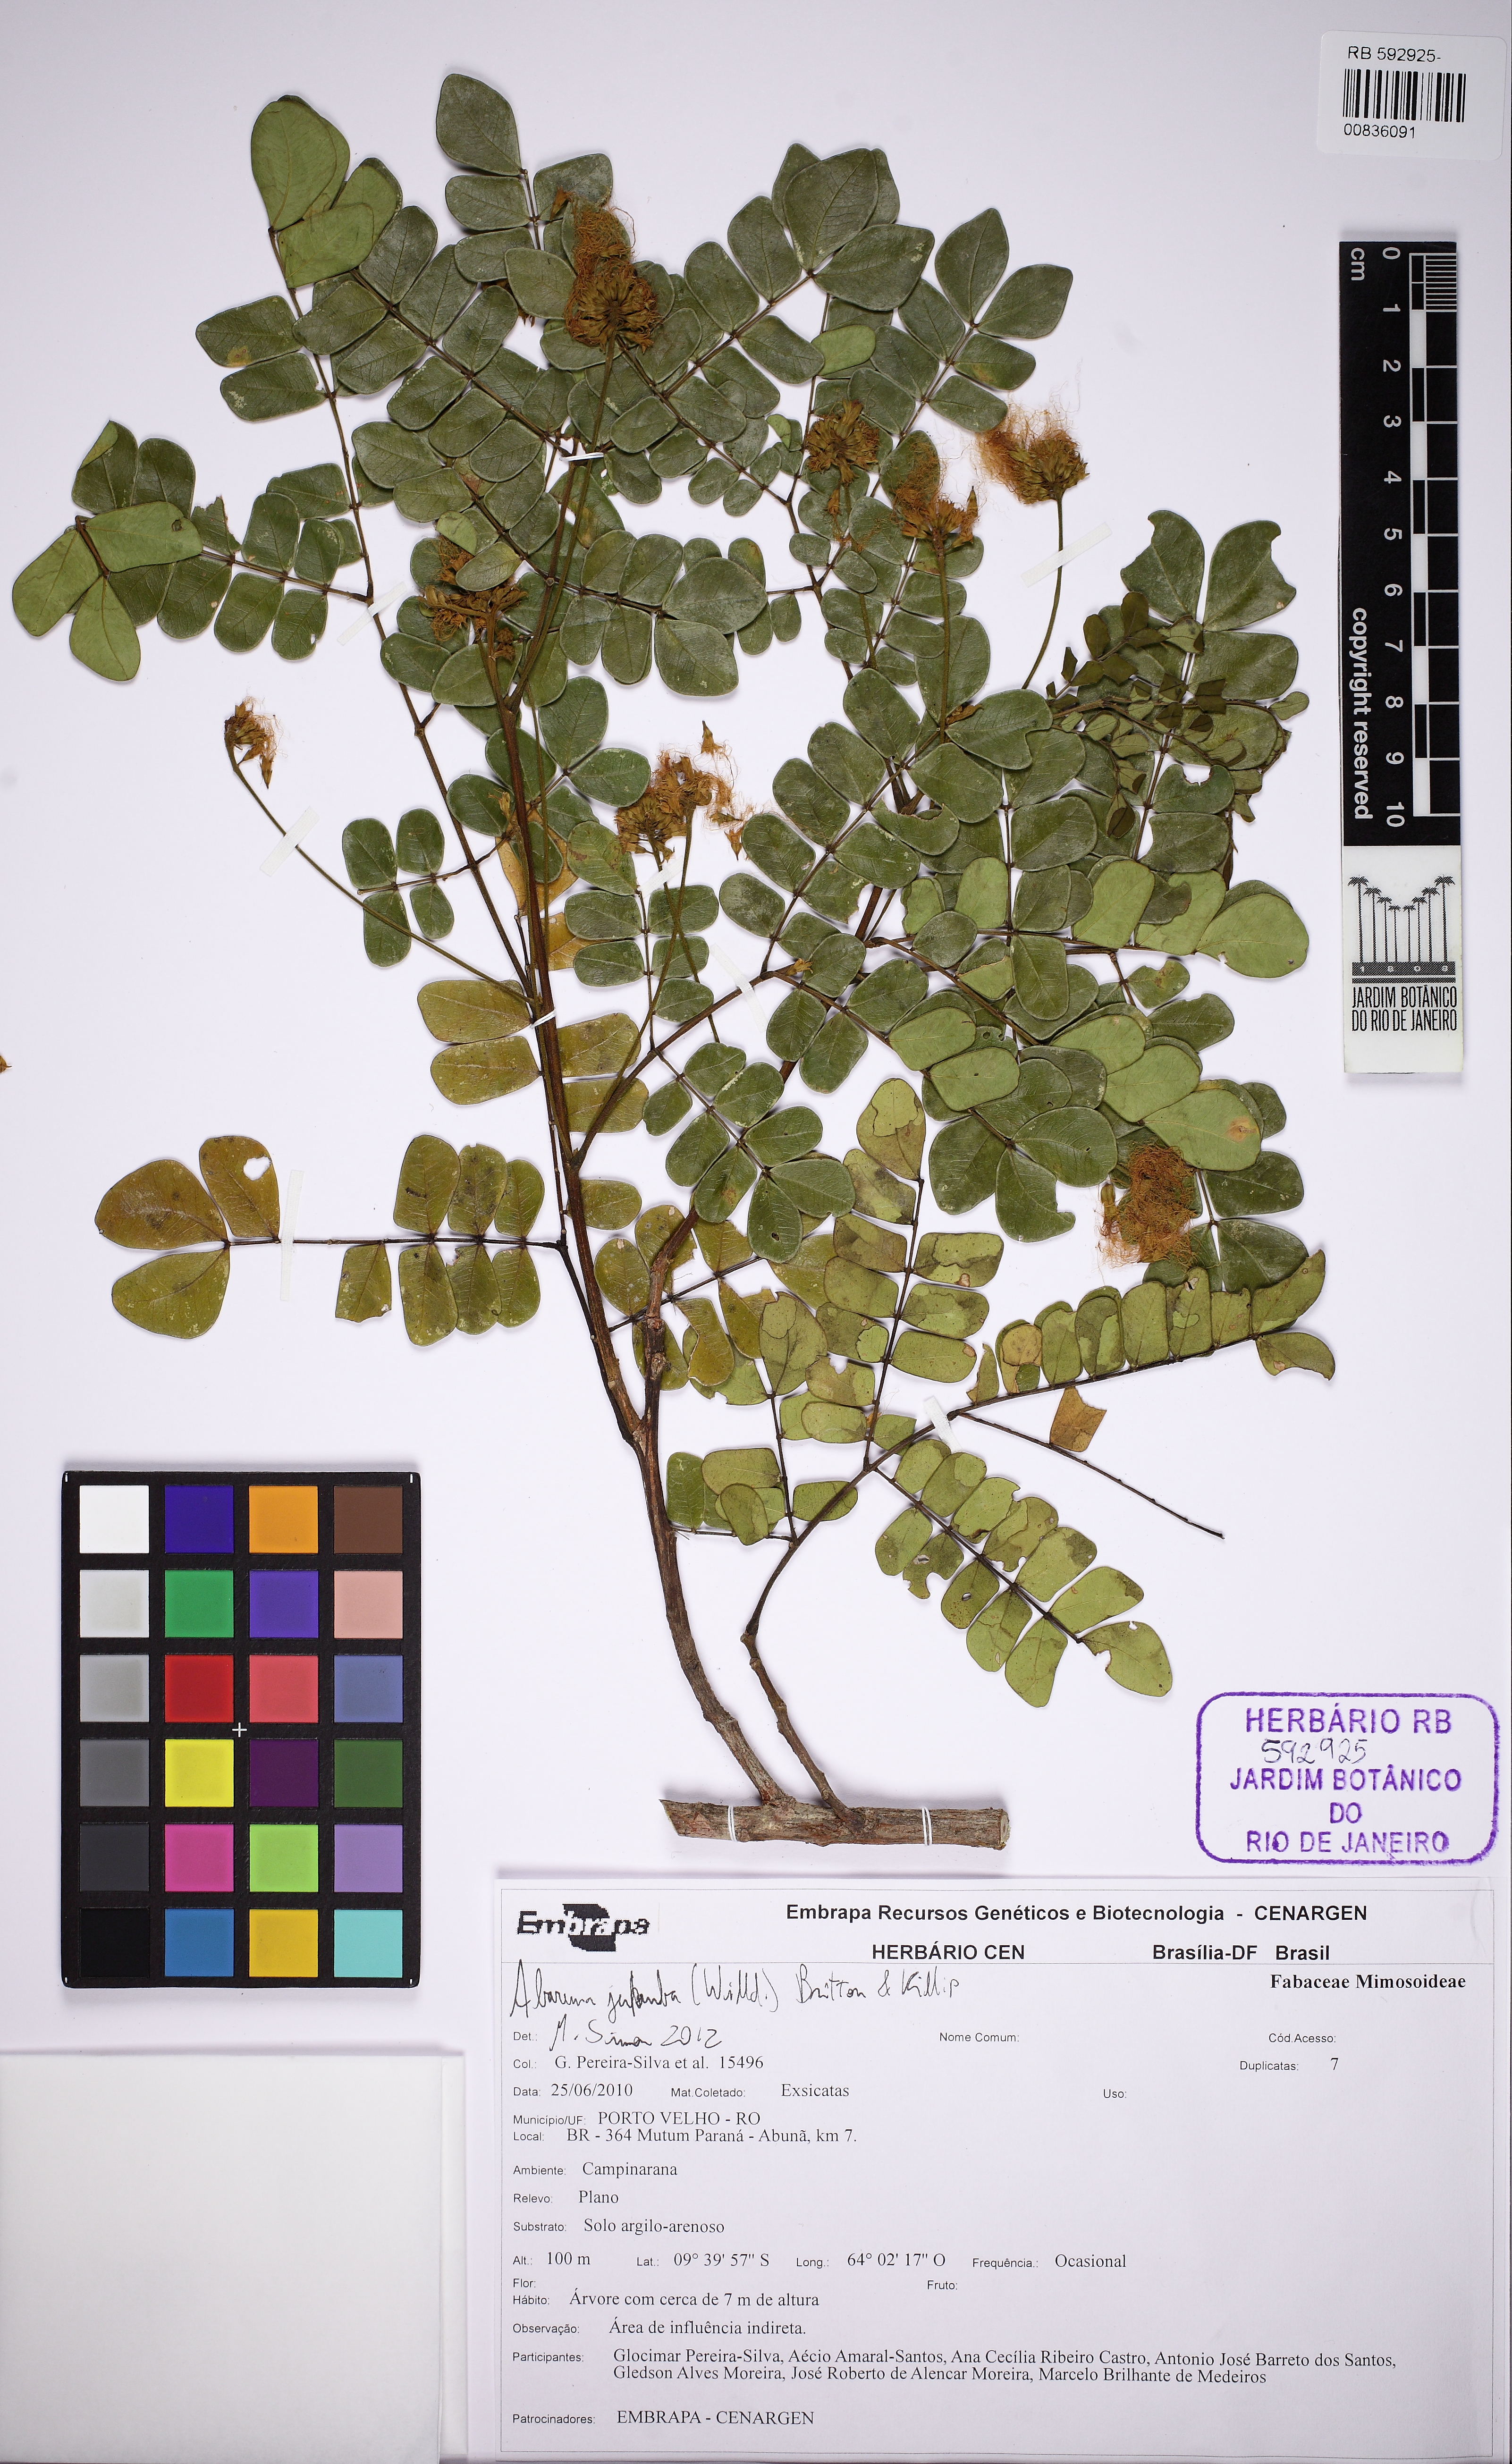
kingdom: Plantae
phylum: Tracheophyta
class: Magnoliopsida
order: Fabales
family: Fabaceae
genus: Jupunba
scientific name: Jupunba trapezifolia
